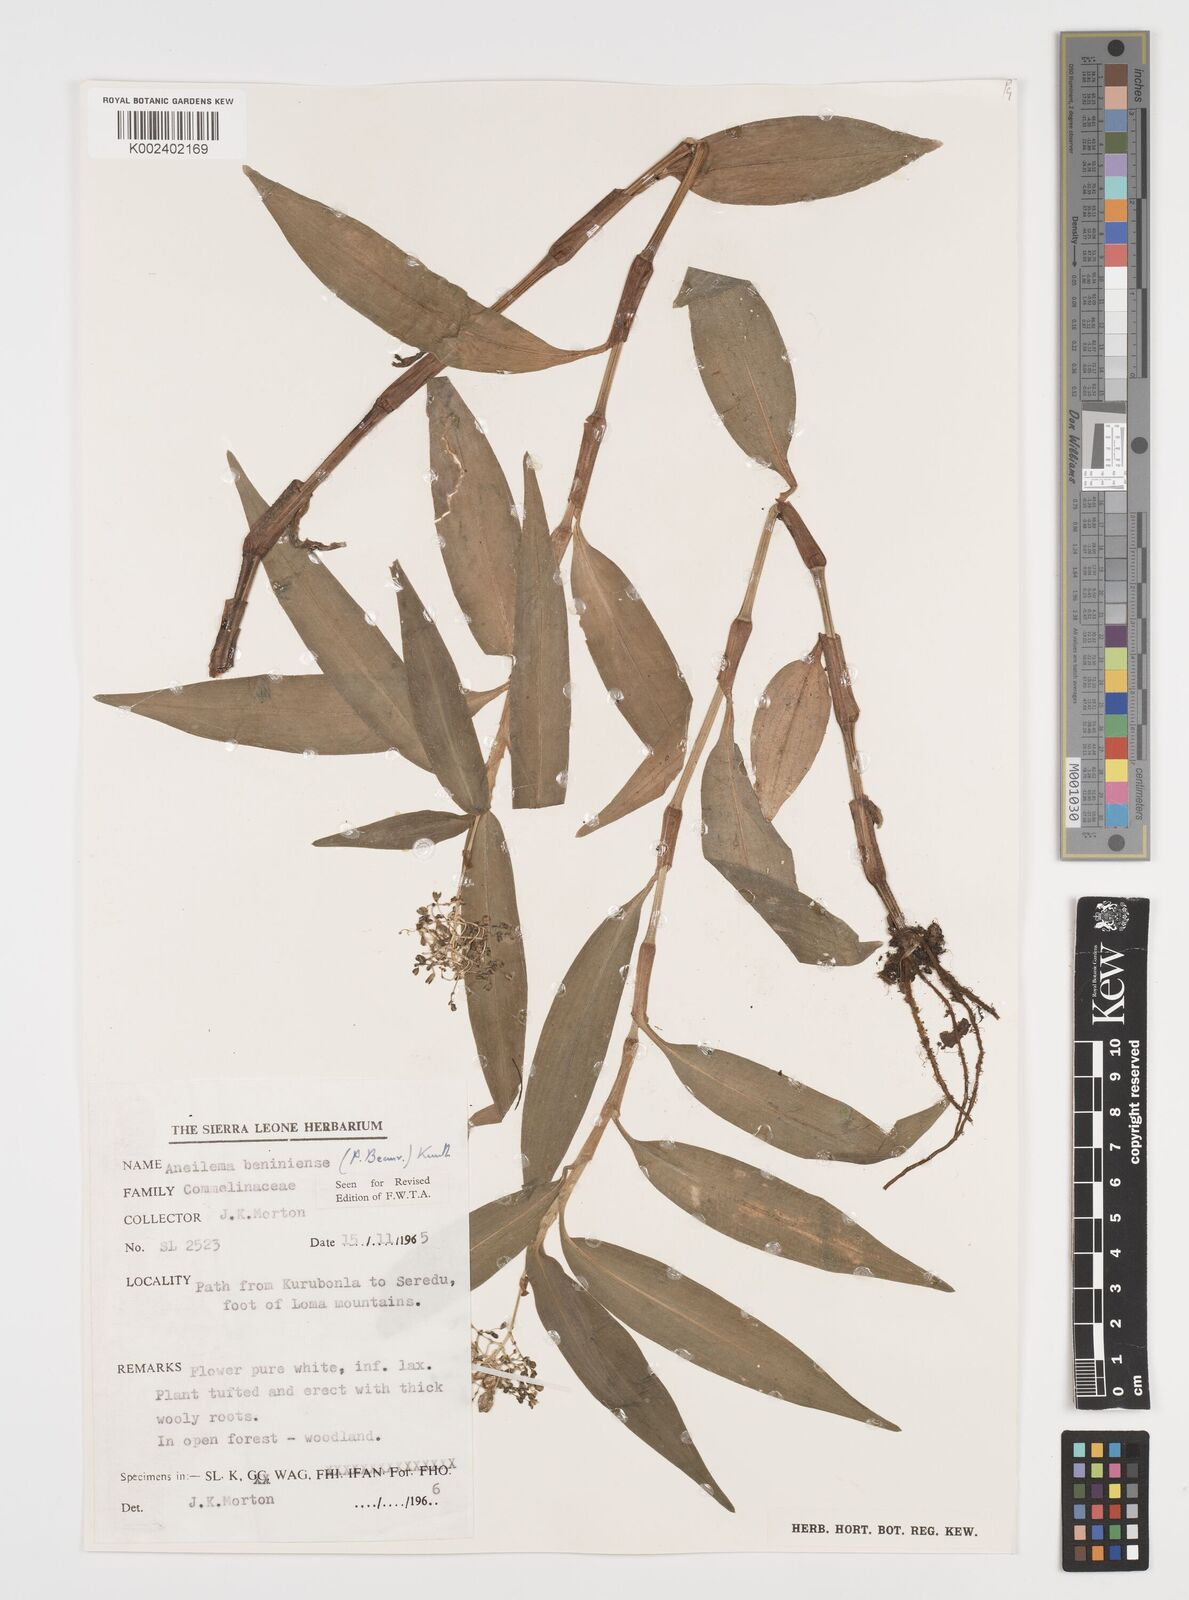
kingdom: Plantae
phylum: Tracheophyta
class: Liliopsida
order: Commelinales
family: Commelinaceae
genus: Aneilema
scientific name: Aneilema beniniense
